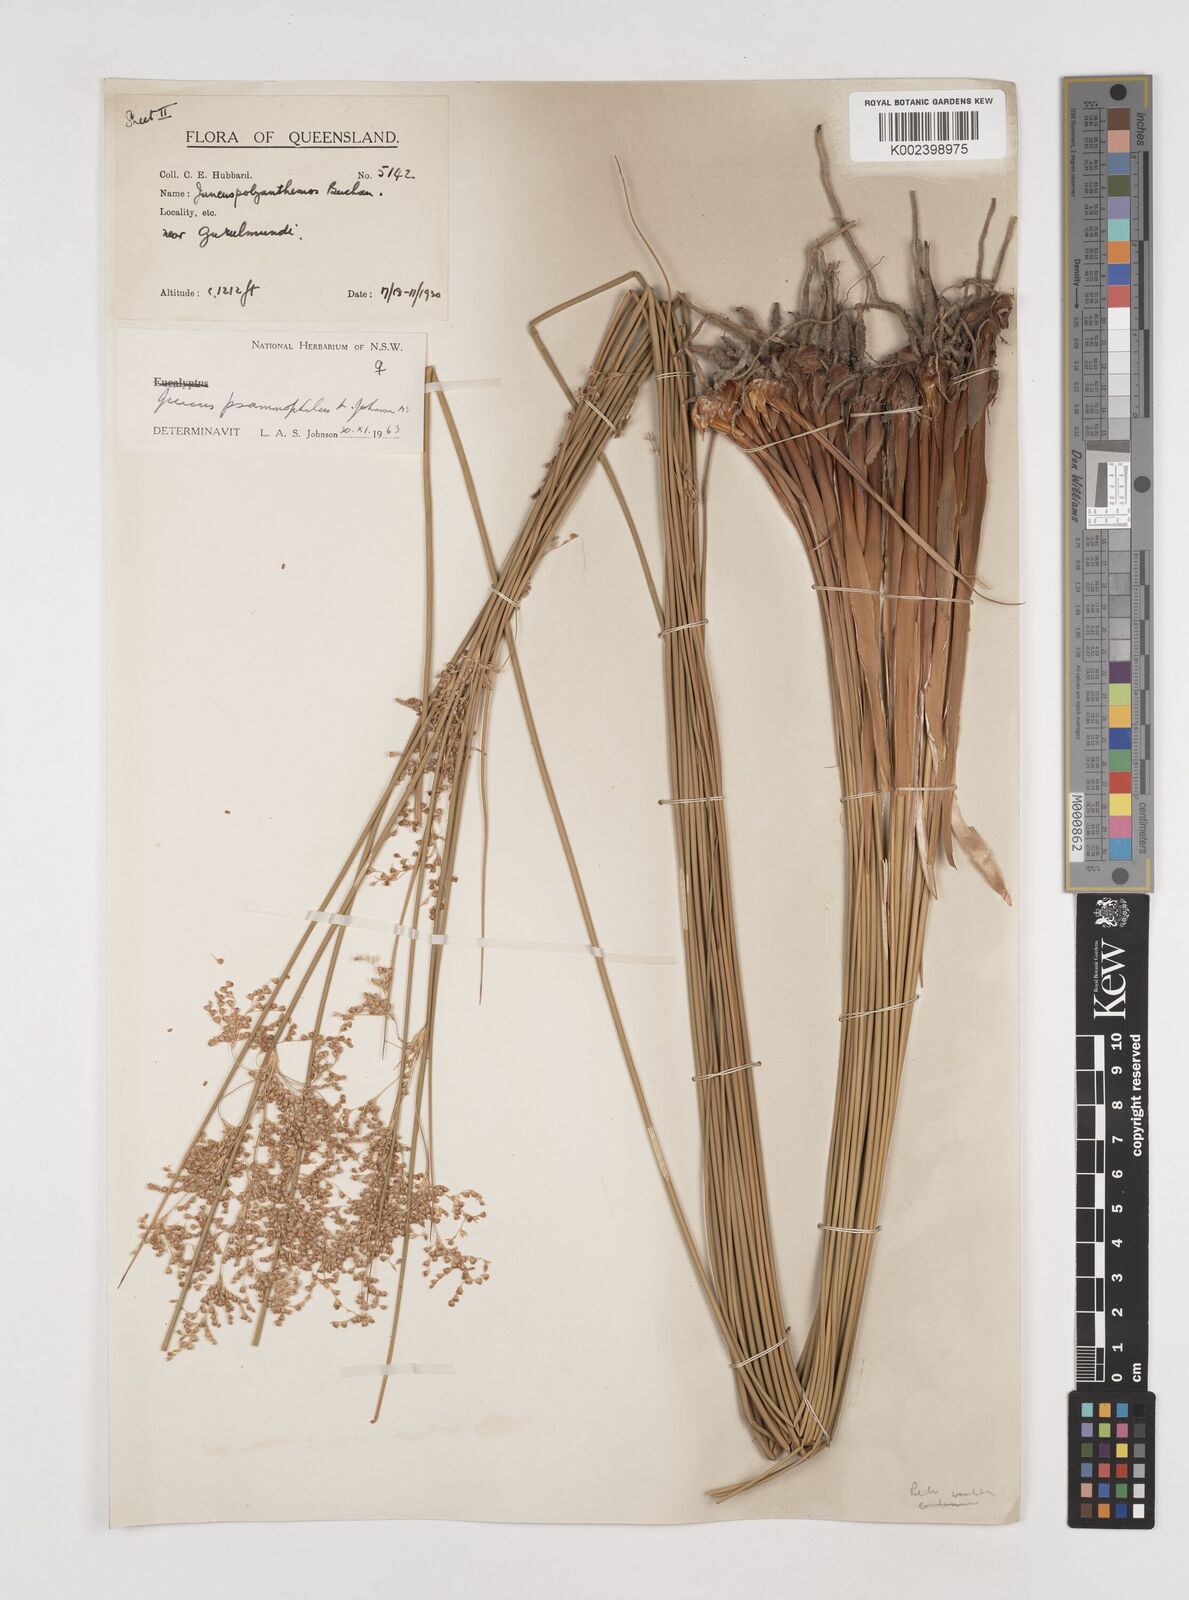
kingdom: Plantae
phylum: Tracheophyta
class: Liliopsida
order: Poales
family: Juncaceae
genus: Juncus
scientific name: Juncus psammophilus
